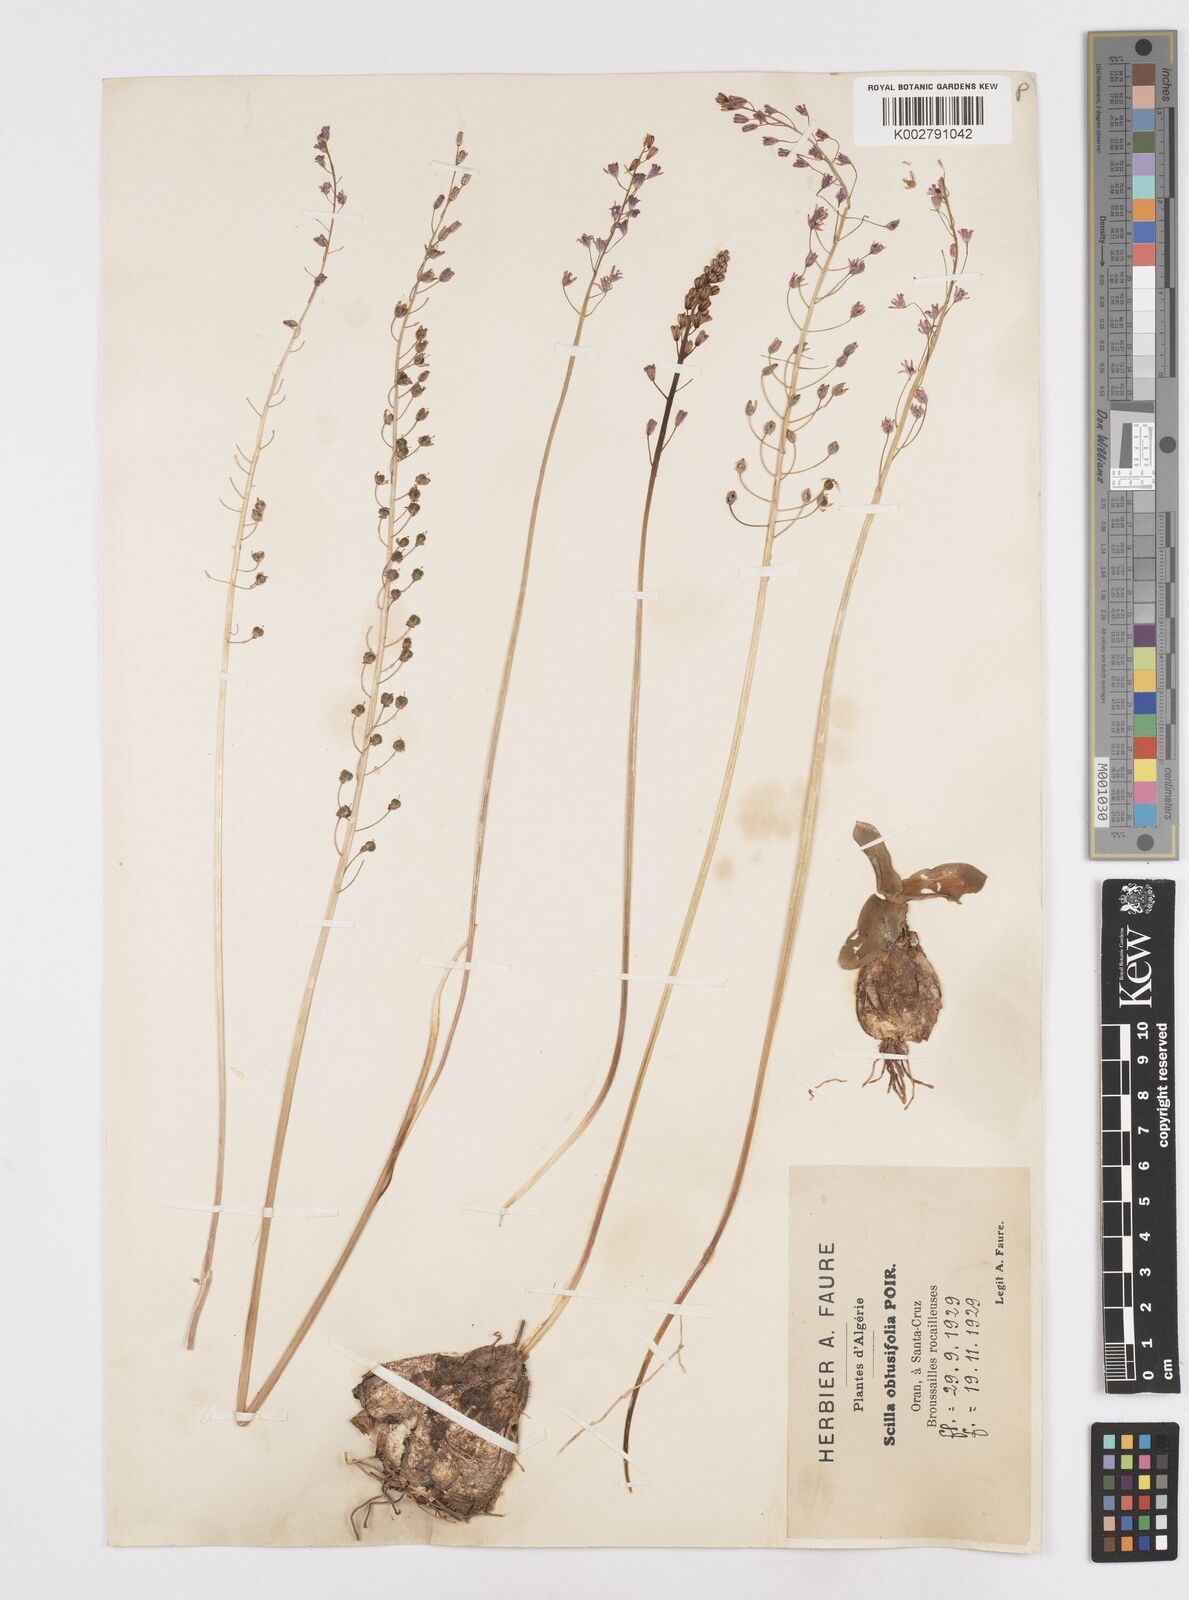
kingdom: Plantae
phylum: Tracheophyta
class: Liliopsida
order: Asparagales
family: Asparagaceae
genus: Prospero
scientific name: Prospero obtusifolium
